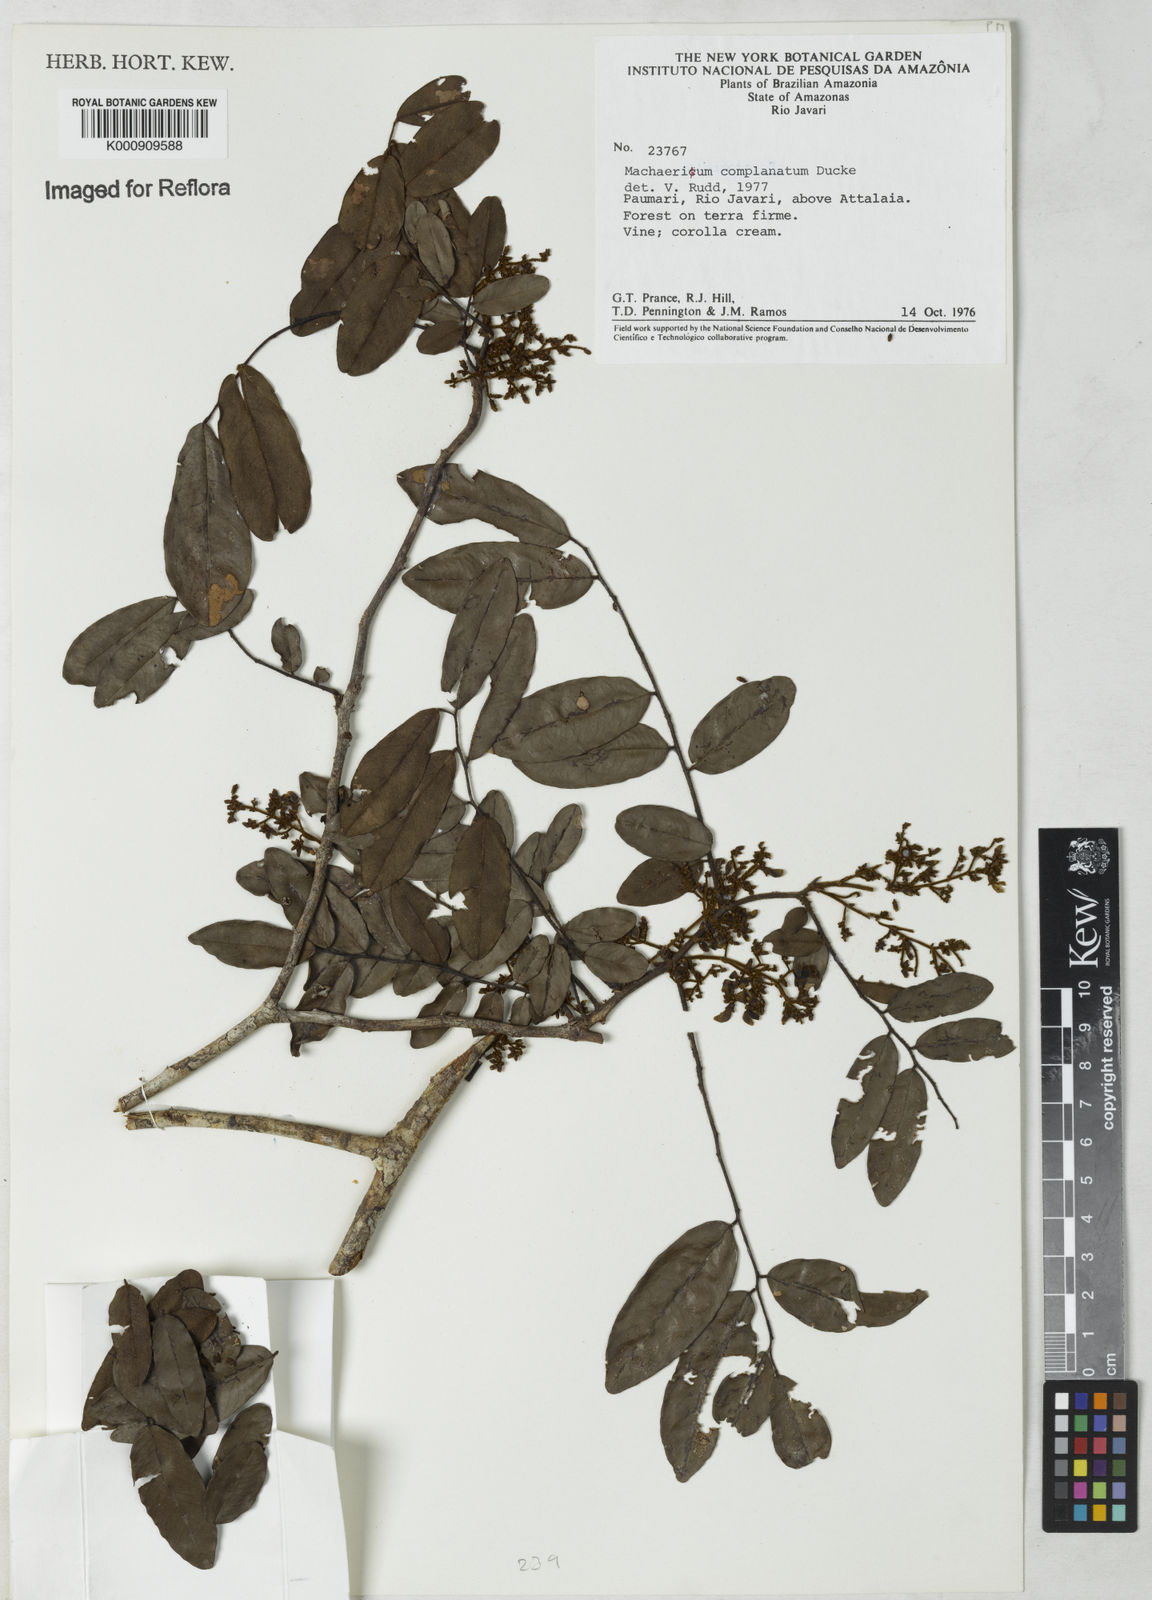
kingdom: Plantae
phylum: Tracheophyta
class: Magnoliopsida
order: Fabales
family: Fabaceae
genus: Machaerium
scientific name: Machaerium complanatum
